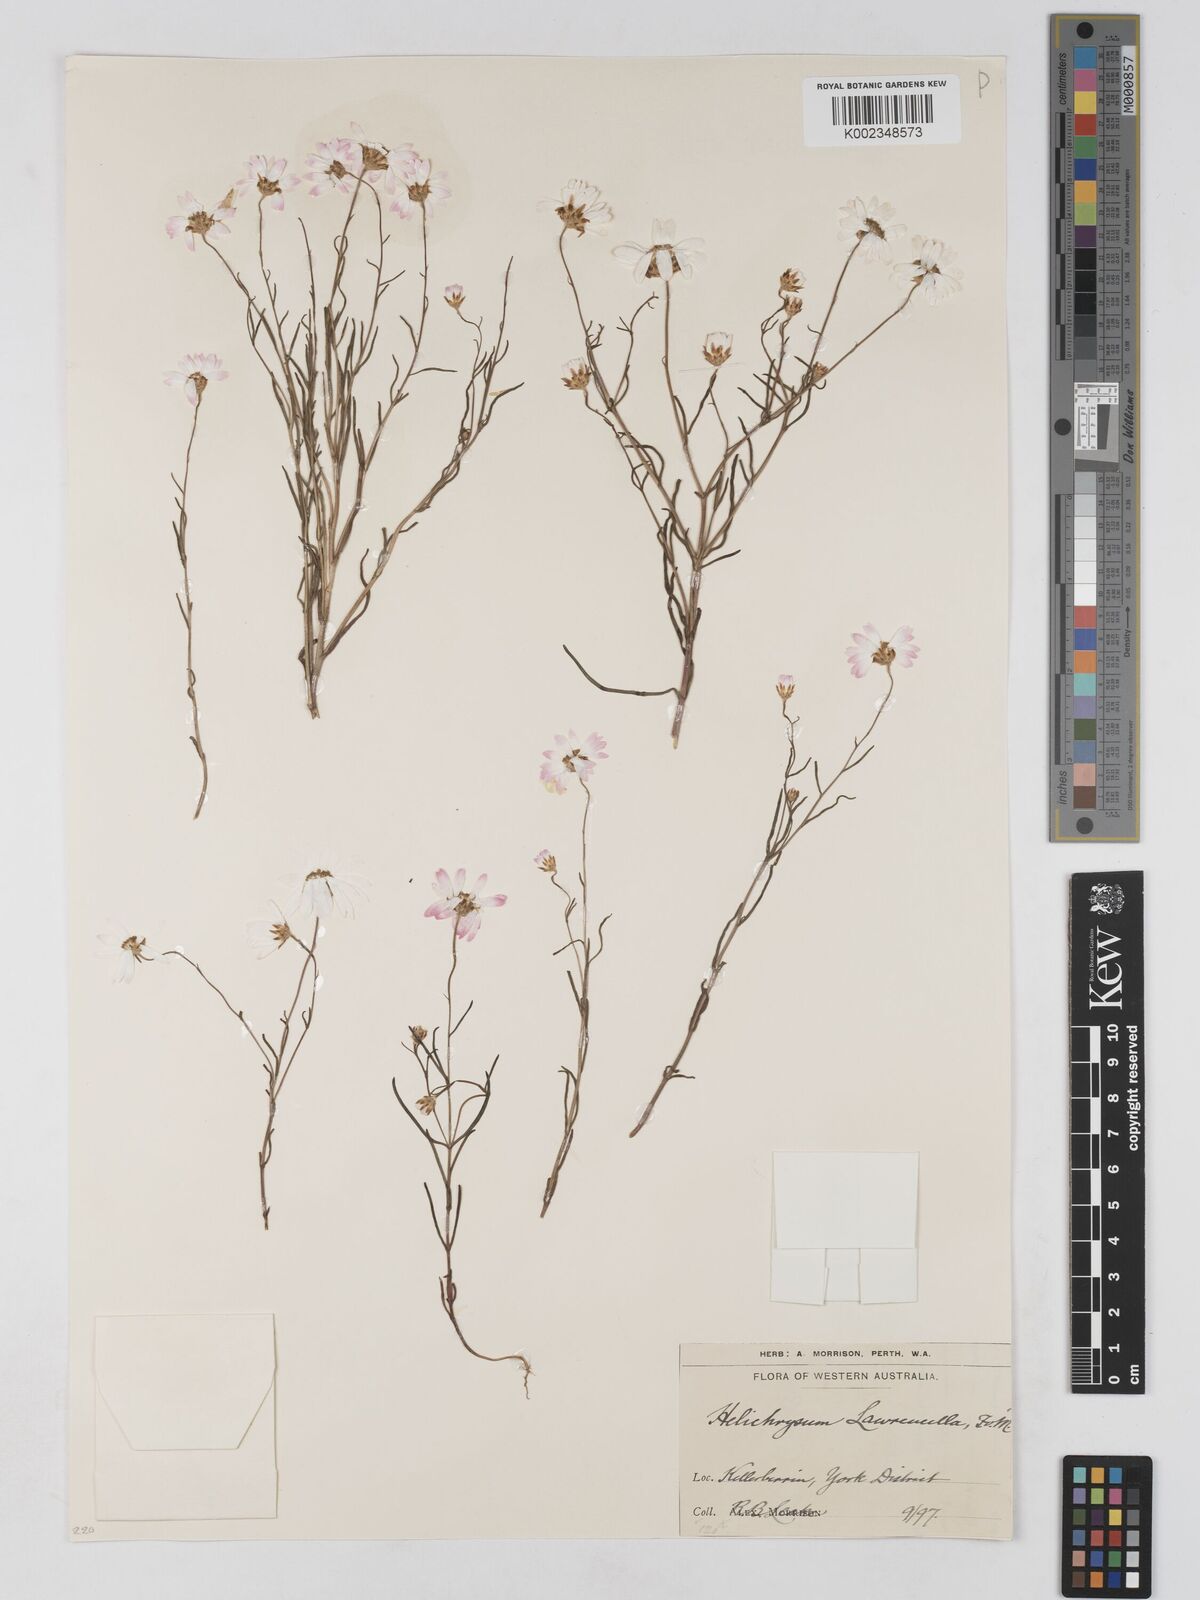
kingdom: Plantae
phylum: Tracheophyta
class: Magnoliopsida
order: Asterales
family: Asteraceae
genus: Lawrencella
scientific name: Lawrencella rosea
